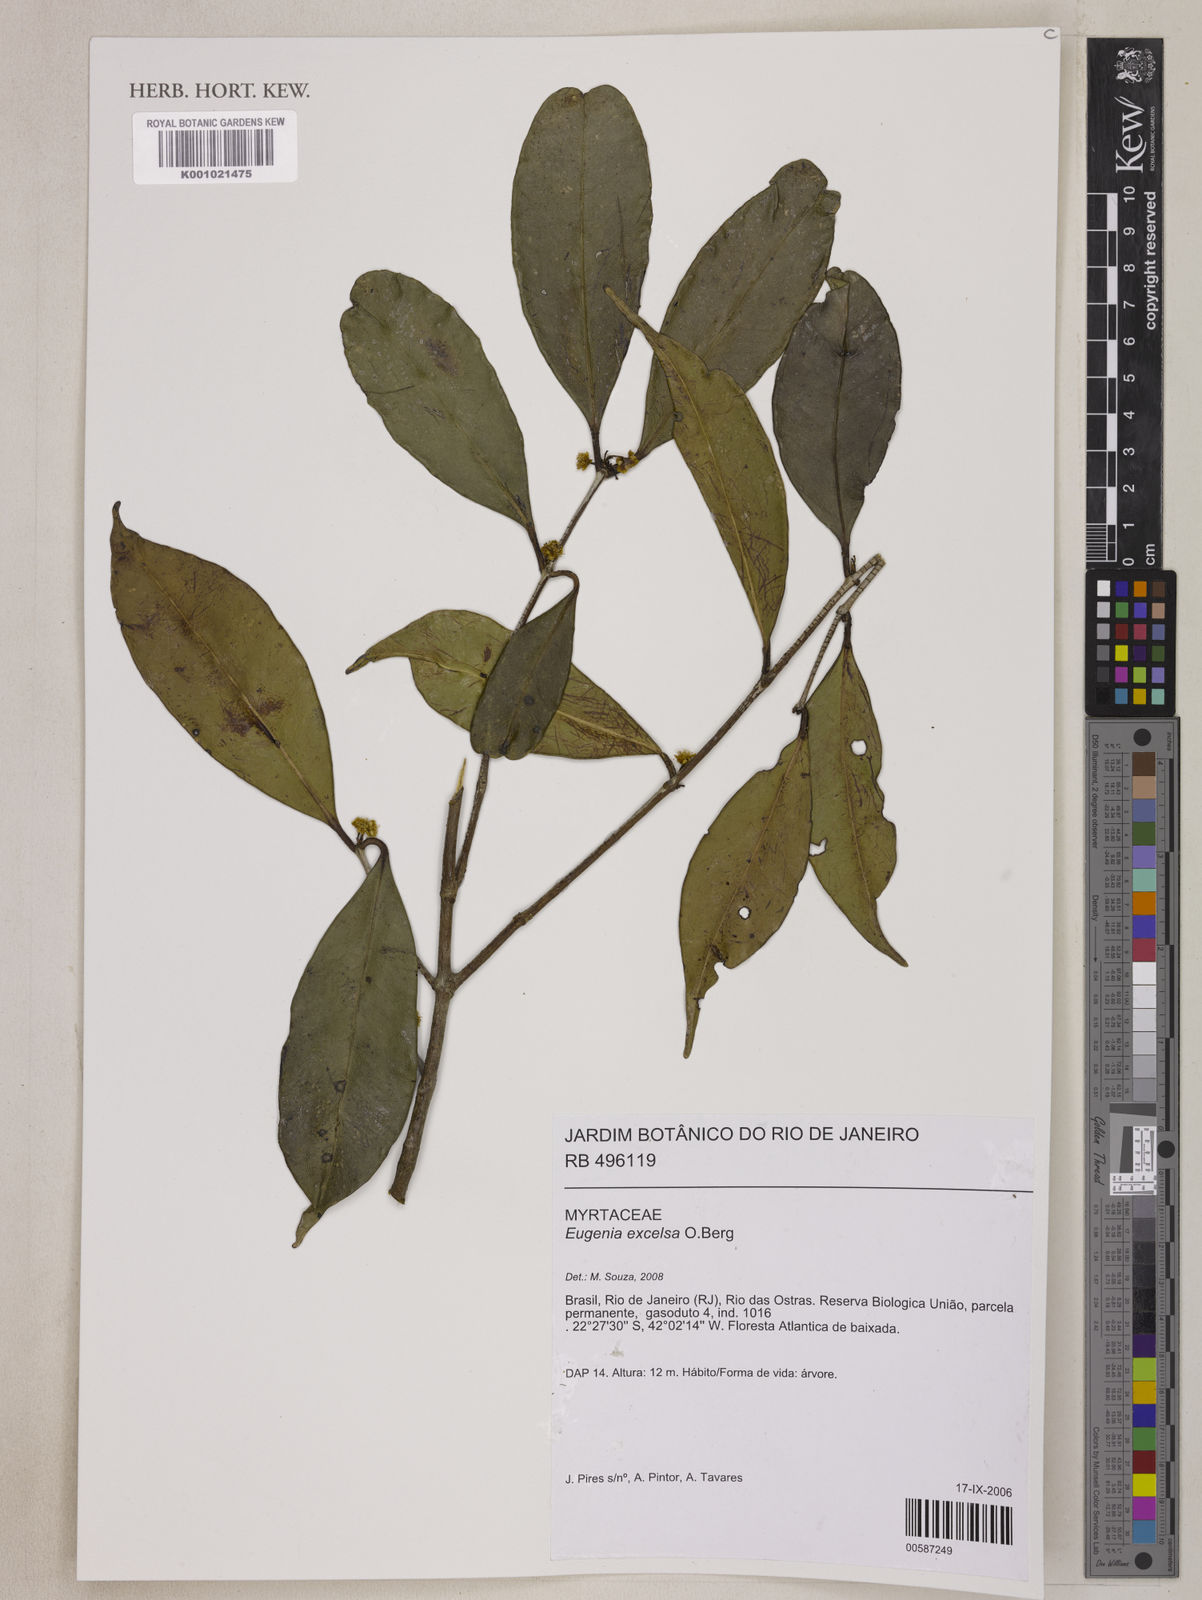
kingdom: Plantae
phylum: Tracheophyta
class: Magnoliopsida
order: Myrtales
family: Myrtaceae
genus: Eugenia
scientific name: Eugenia excelsa
